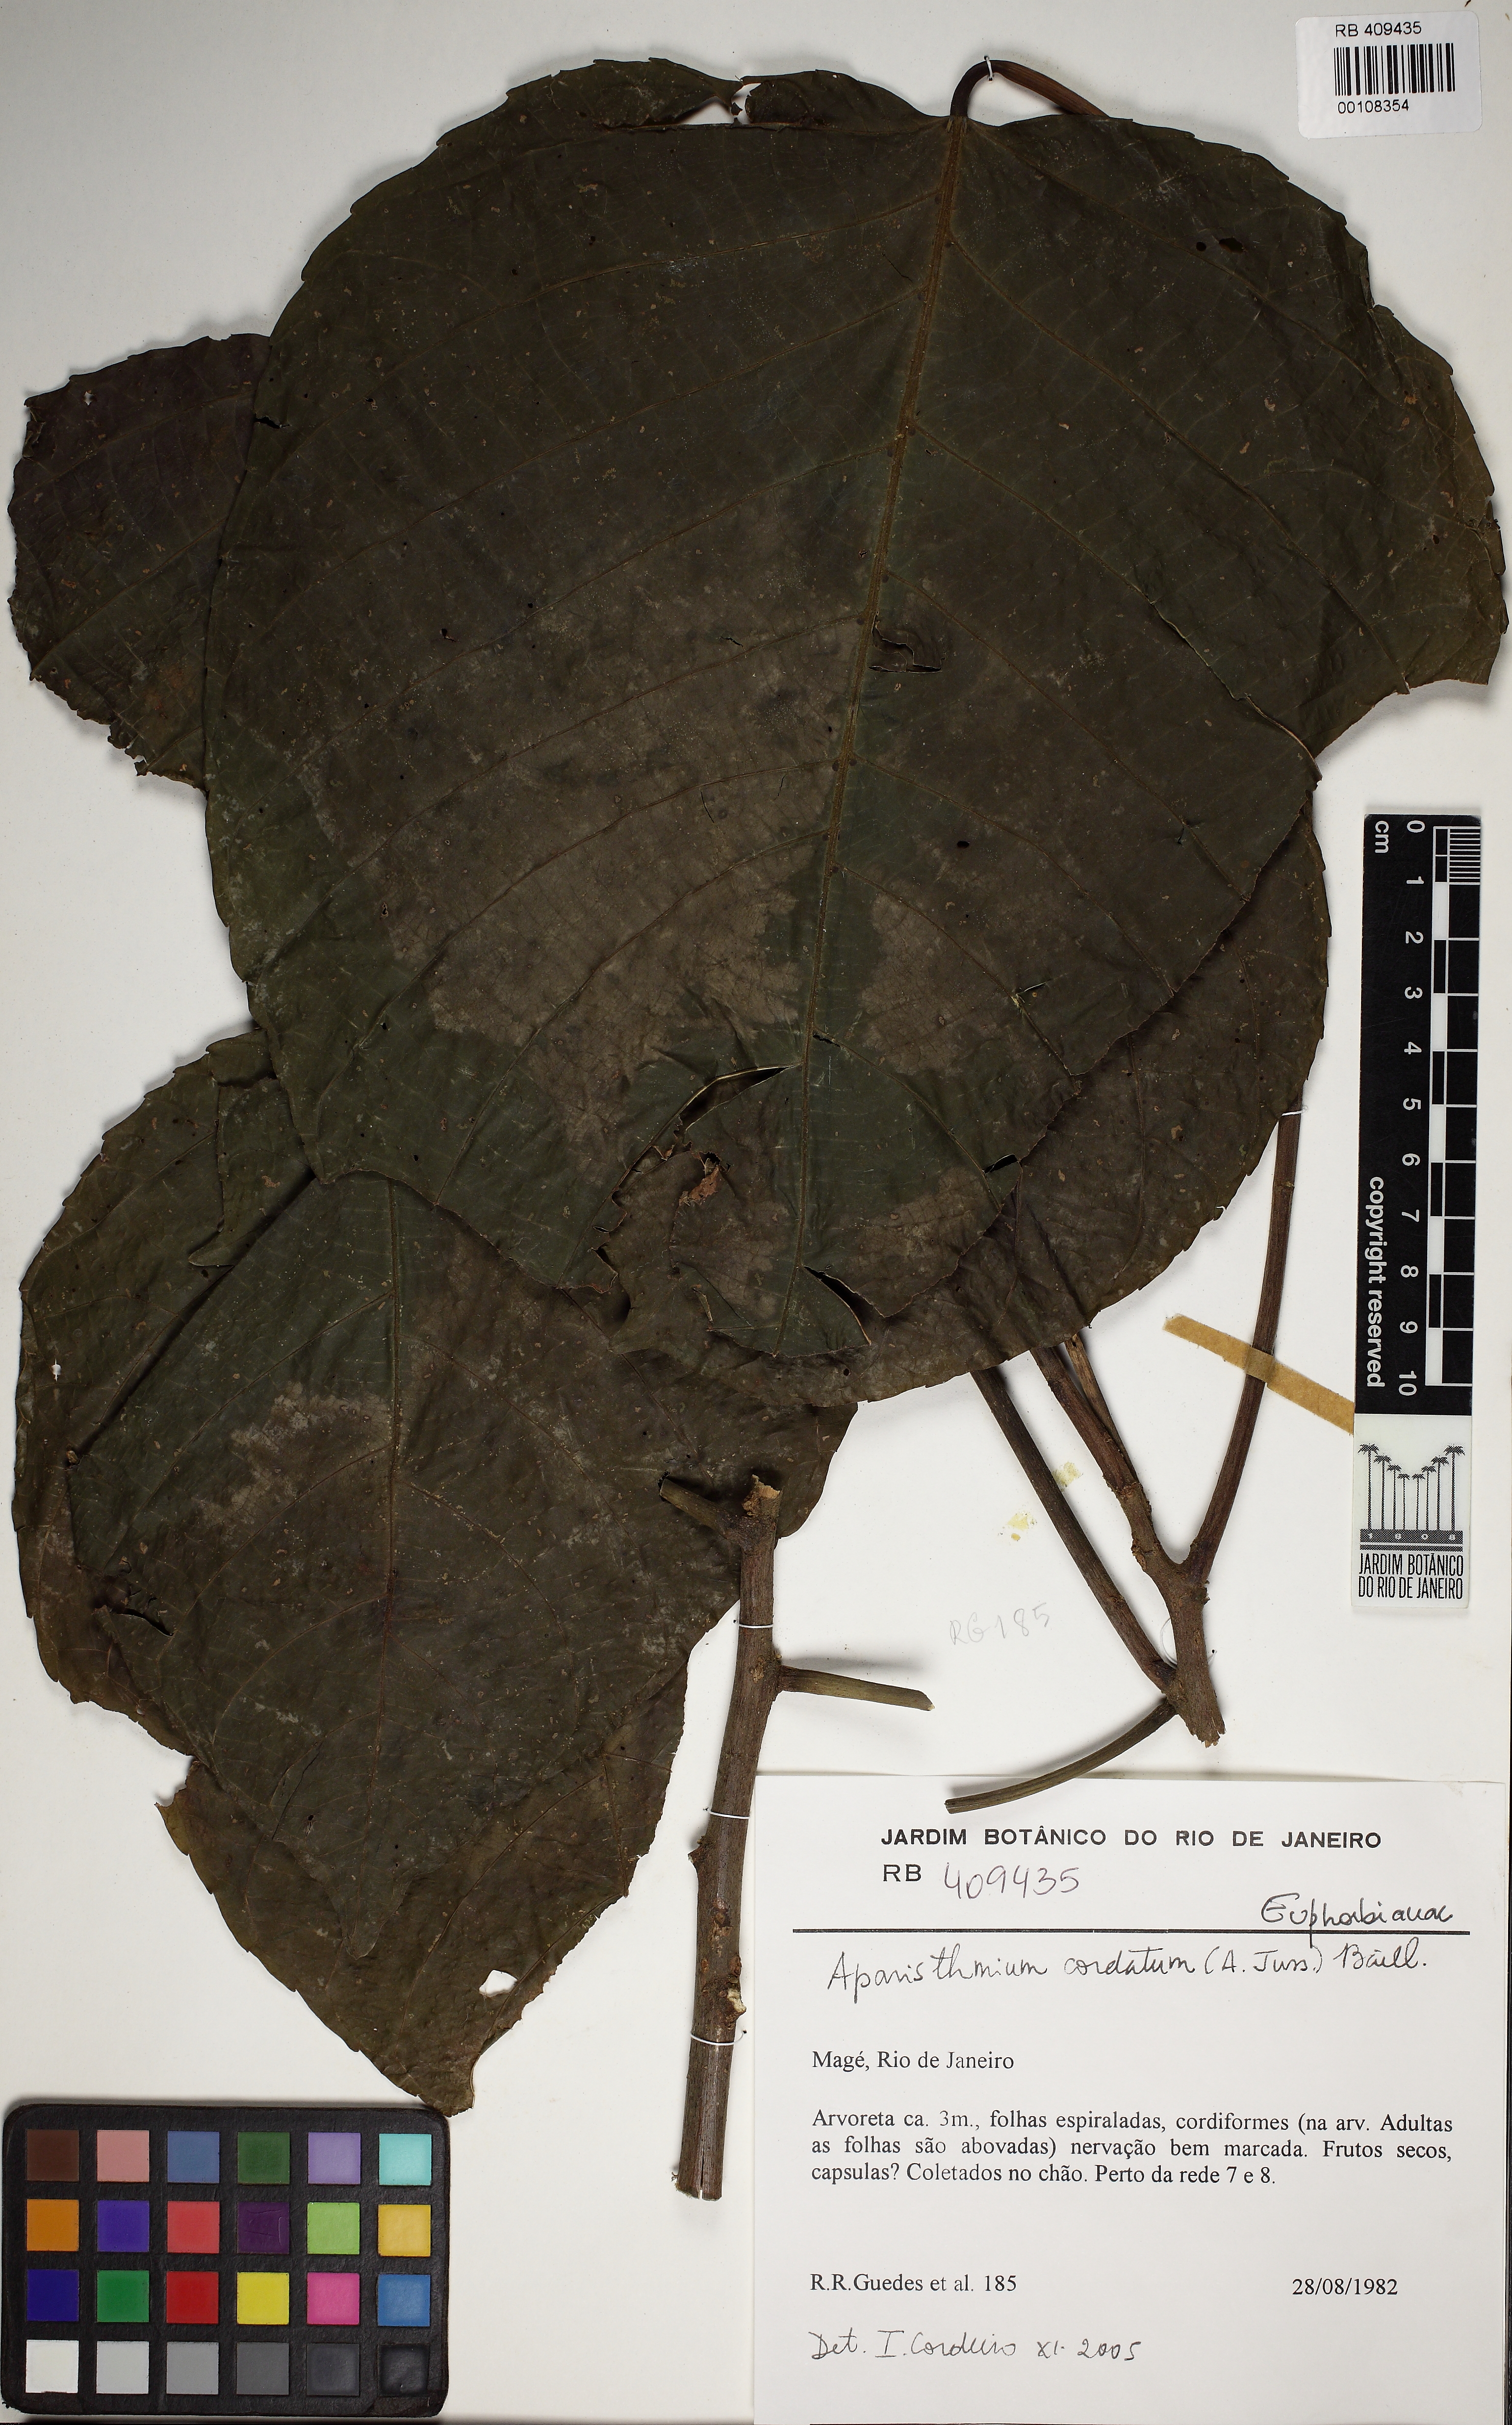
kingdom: Plantae
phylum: Tracheophyta
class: Magnoliopsida
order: Malpighiales
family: Euphorbiaceae
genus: Aparisthmium
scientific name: Aparisthmium cordatum
